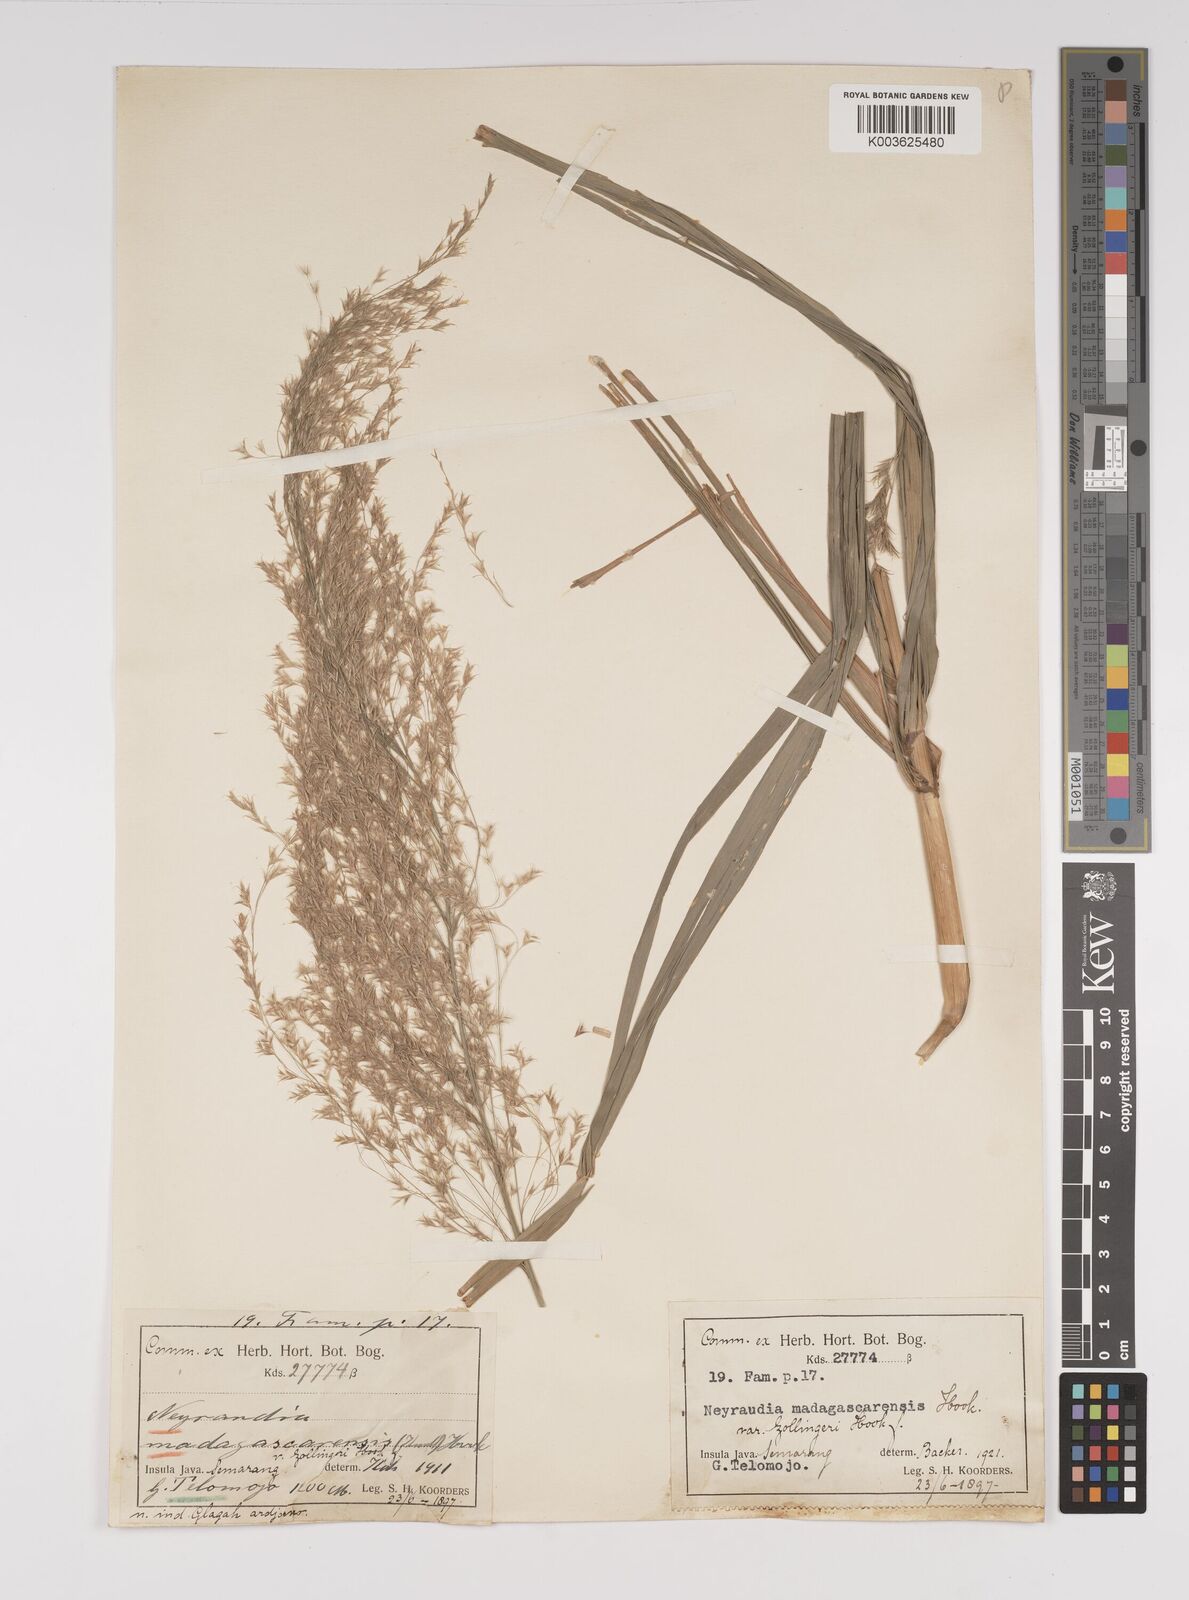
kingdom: Plantae
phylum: Tracheophyta
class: Liliopsida
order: Poales
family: Poaceae
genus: Neyraudia
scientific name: Neyraudia reynaudiana
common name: Silkreed
